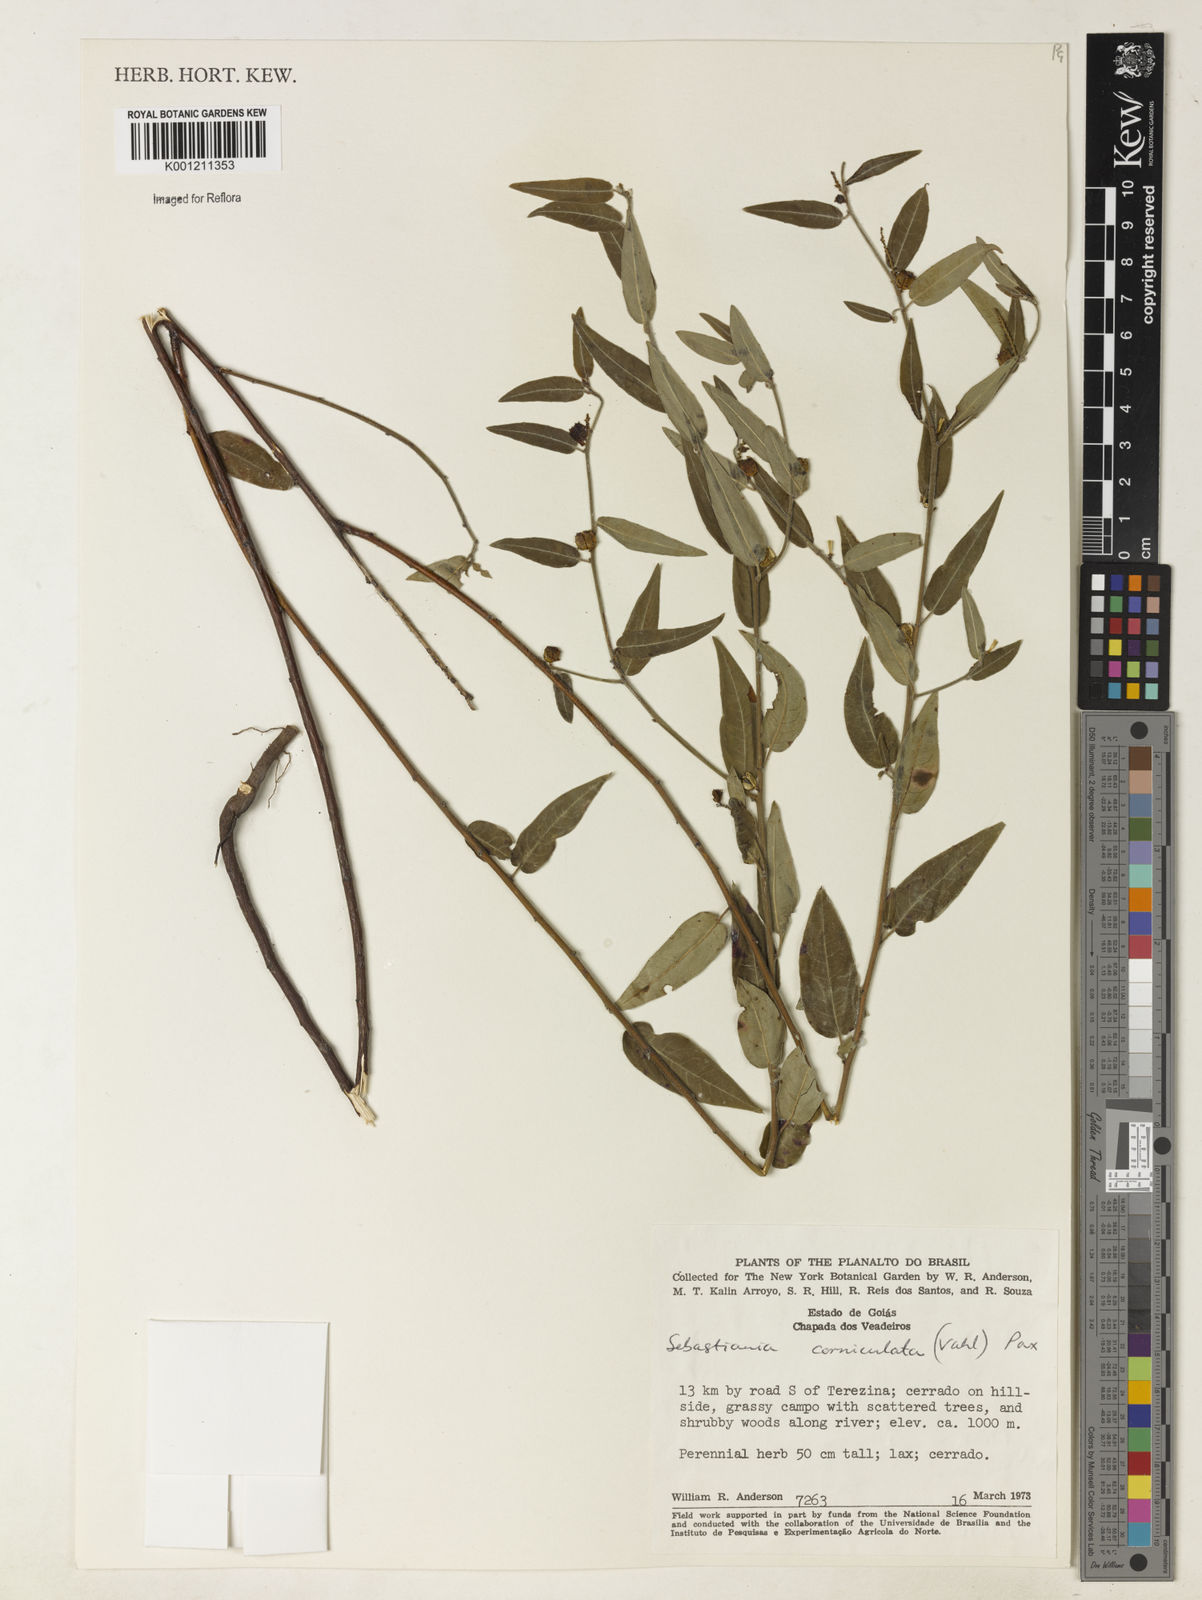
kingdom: Plantae
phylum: Tracheophyta
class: Magnoliopsida
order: Malpighiales
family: Euphorbiaceae
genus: Microstachys
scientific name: Microstachys corniculata
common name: Hato tejas
